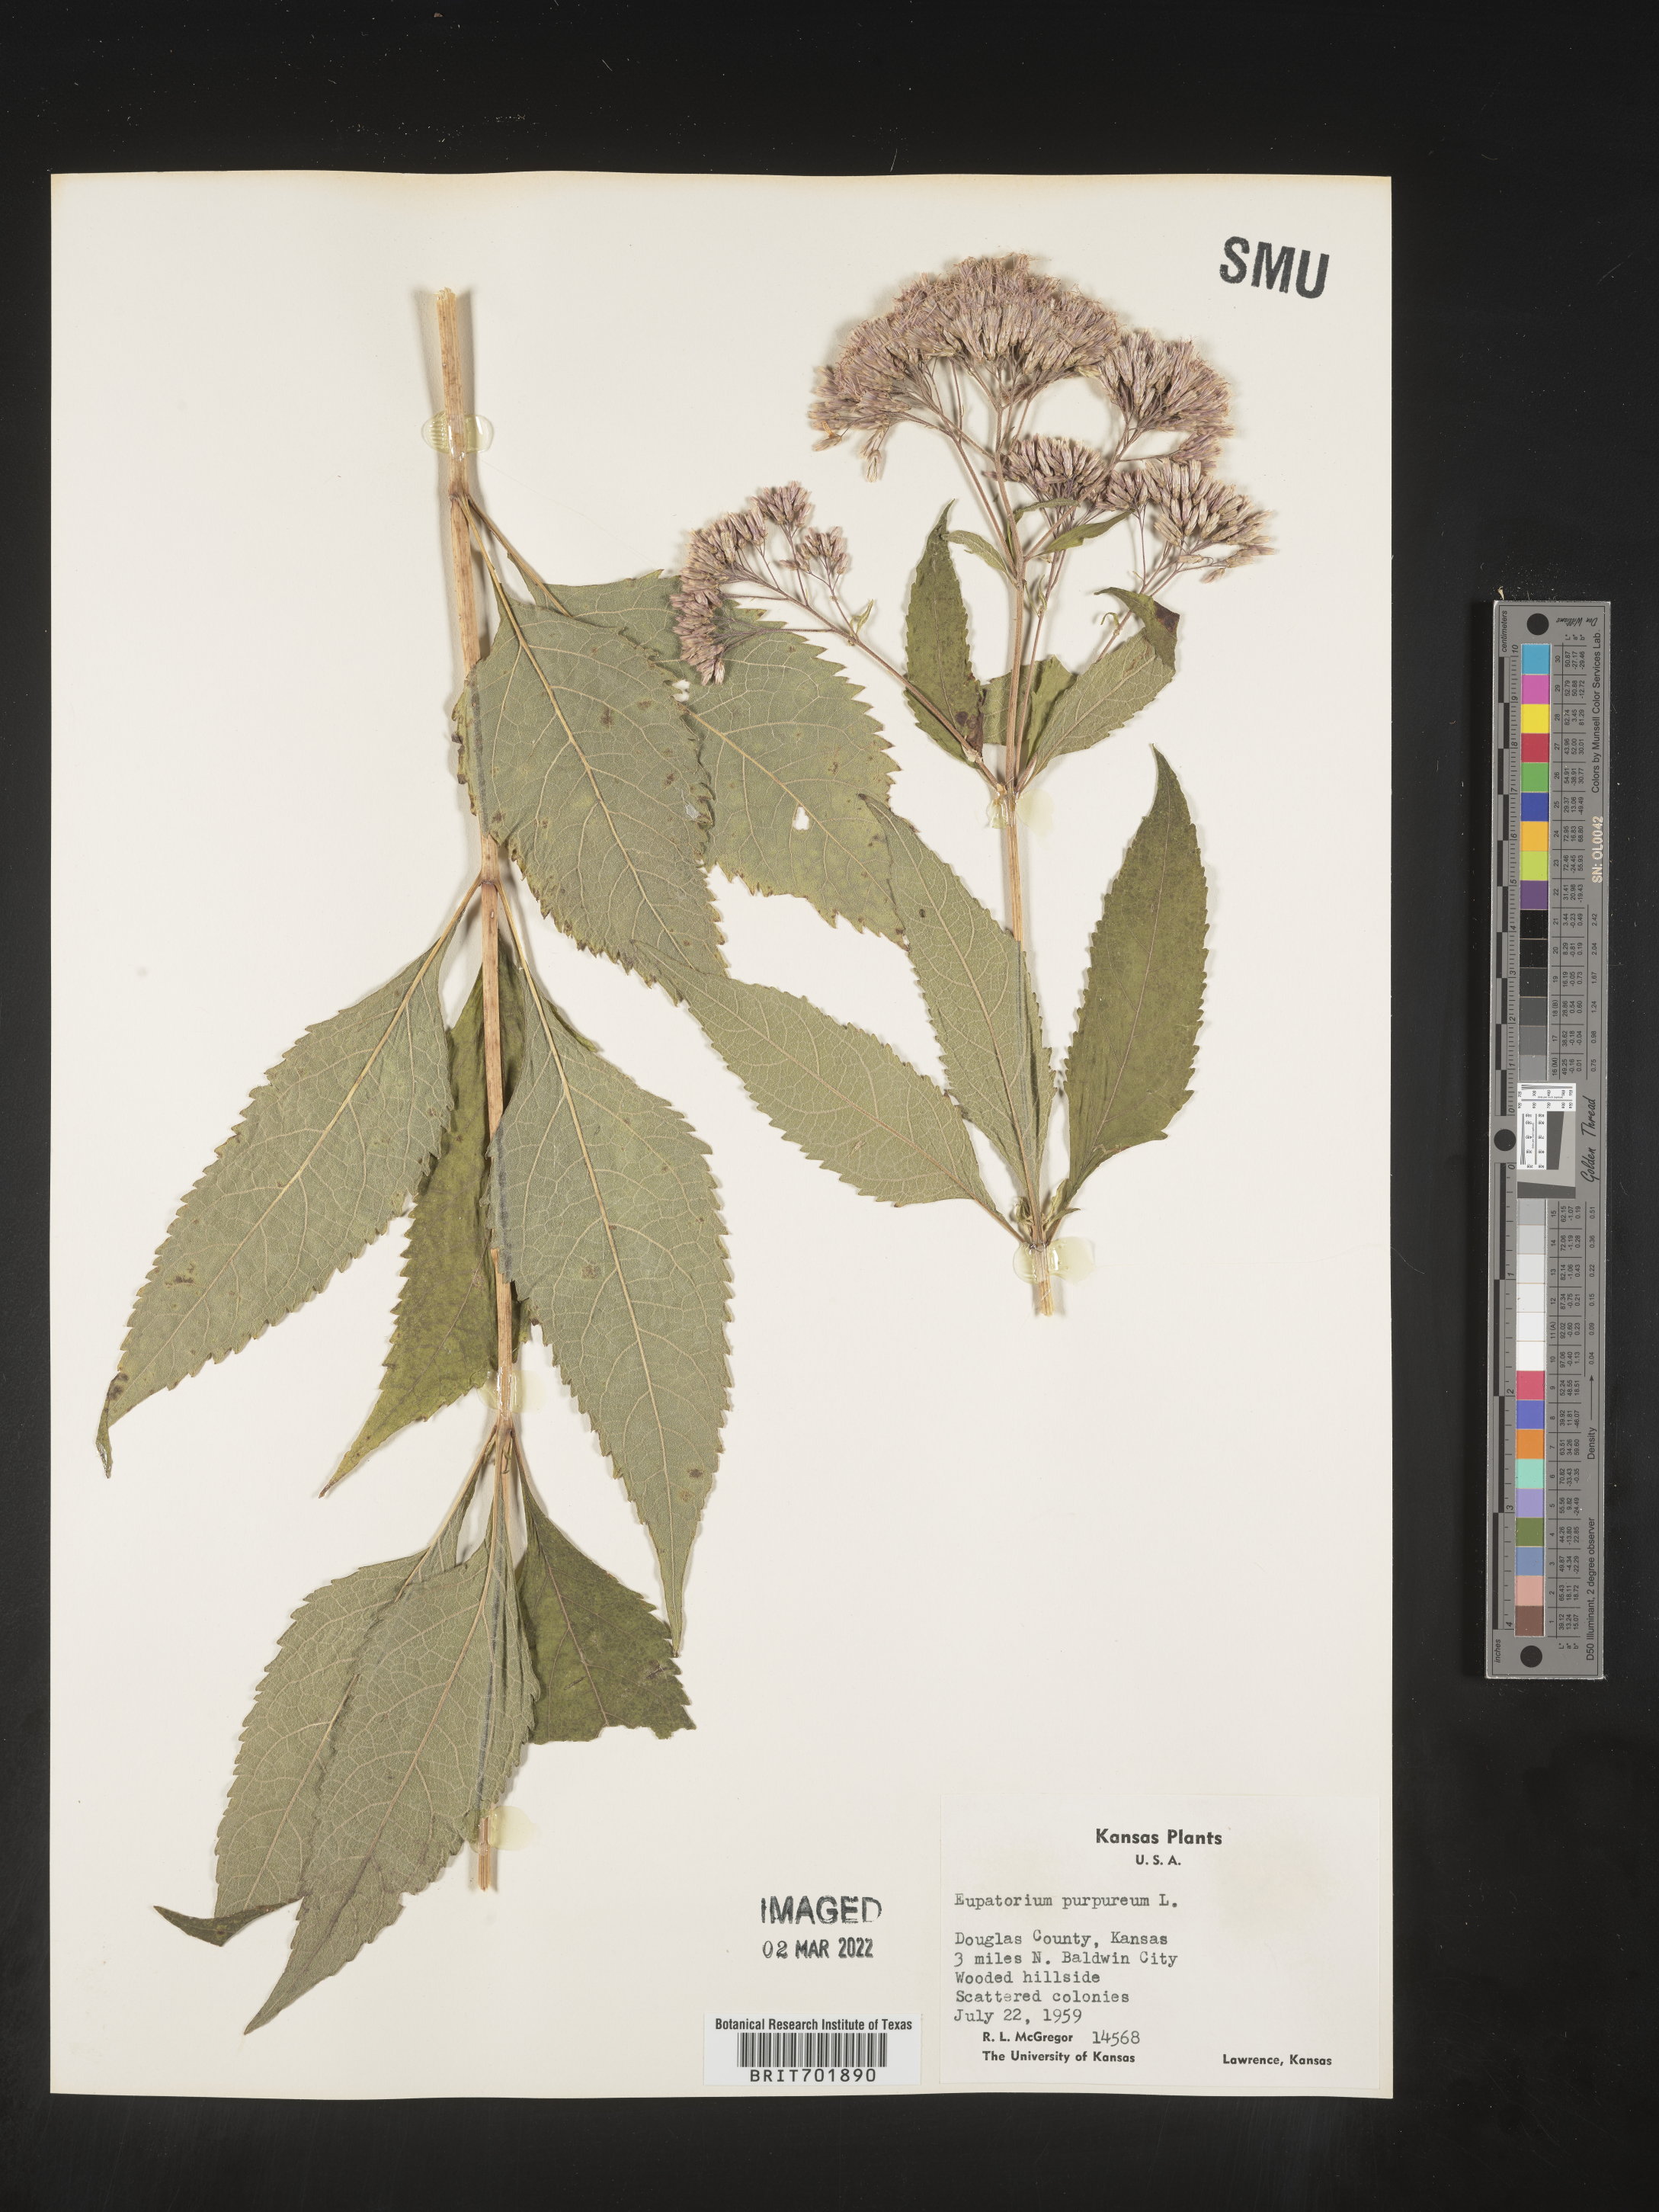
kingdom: Plantae
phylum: Tracheophyta
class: Magnoliopsida
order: Asterales
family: Asteraceae
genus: Eupatorium
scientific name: Eupatorium quaternum
